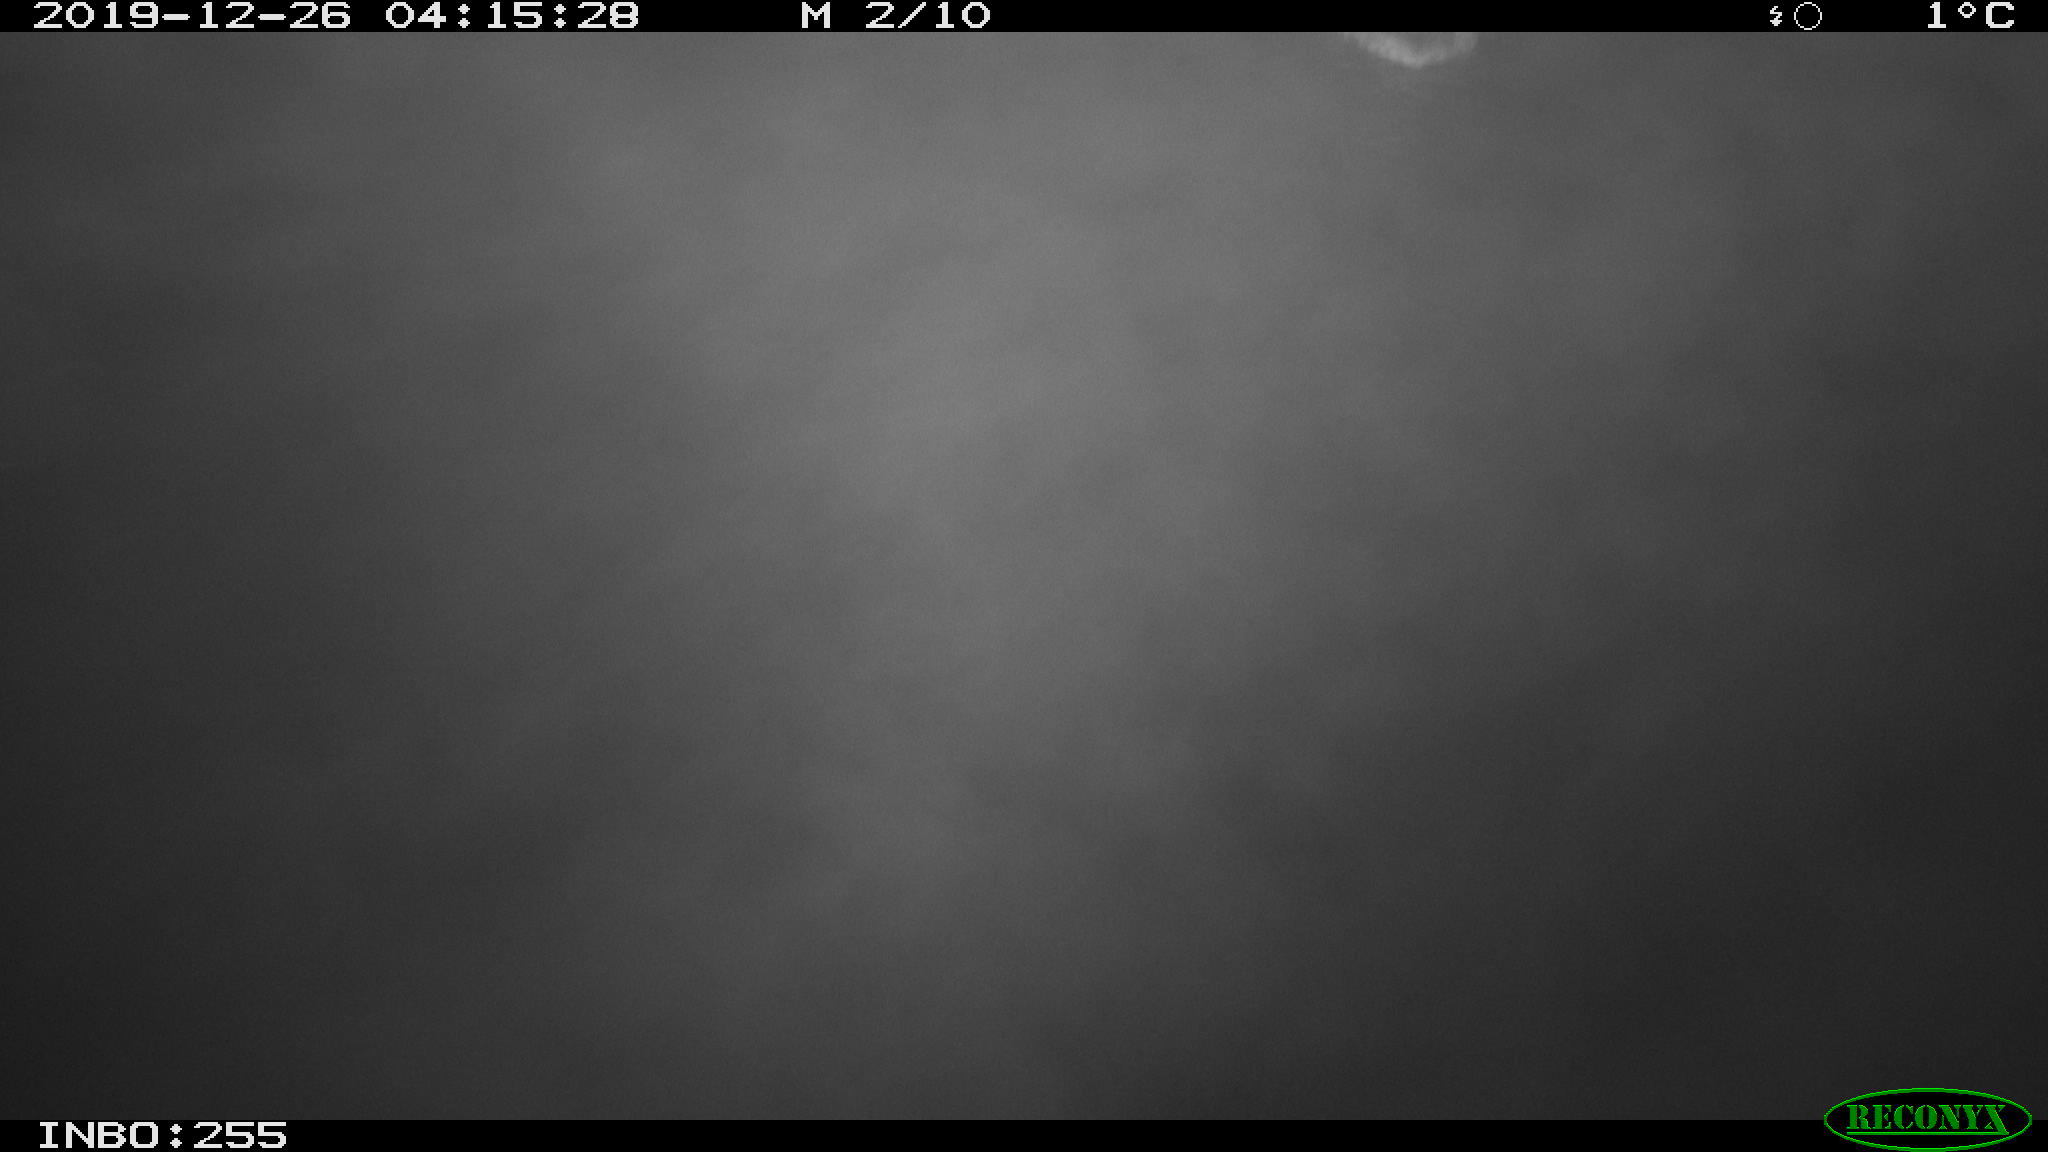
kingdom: Animalia
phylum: Chordata
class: Aves
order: Anseriformes
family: Anatidae
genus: Anas
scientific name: Anas platyrhynchos
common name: Mallard
